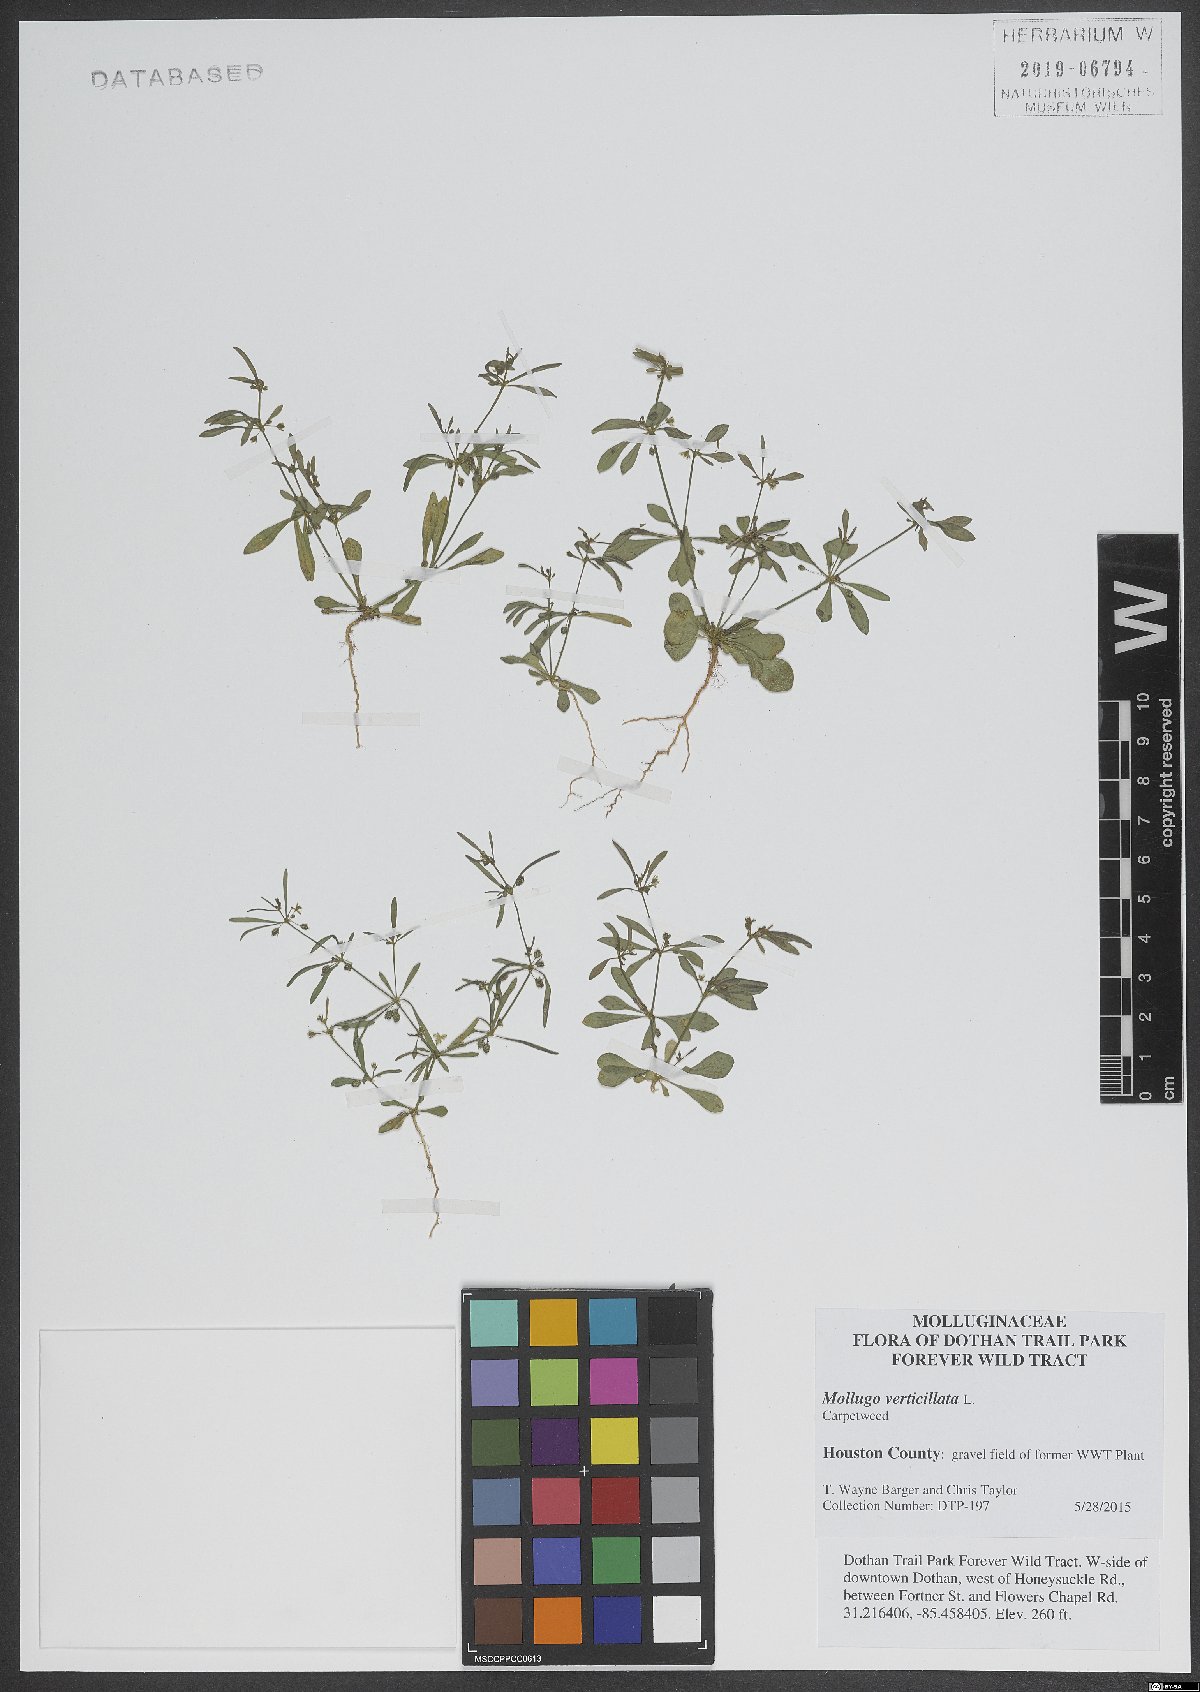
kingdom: Plantae
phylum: Tracheophyta
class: Magnoliopsida
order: Caryophyllales
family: Molluginaceae
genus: Mollugo
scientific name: Mollugo verticillata
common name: Green carpetweed
